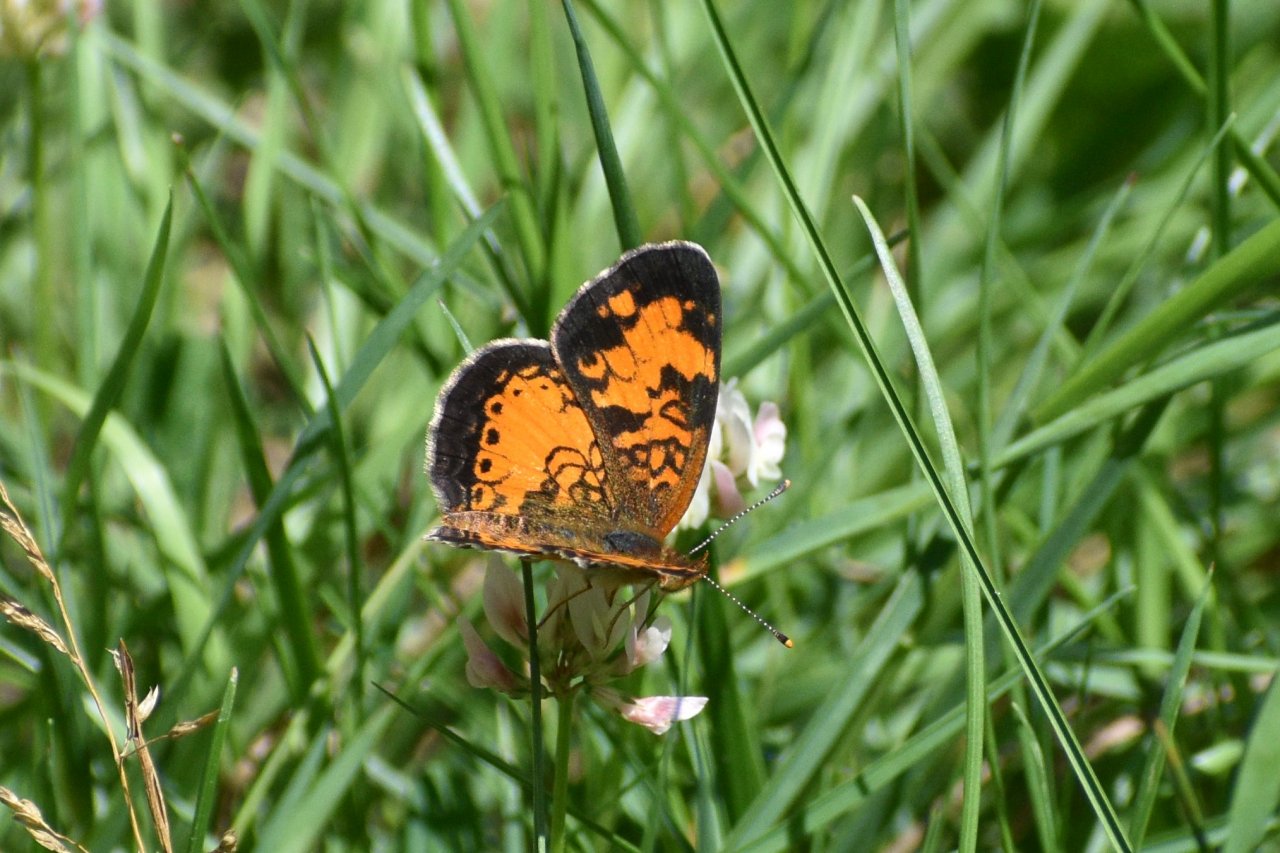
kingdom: Animalia
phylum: Arthropoda
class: Insecta
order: Lepidoptera
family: Nymphalidae
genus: Phyciodes
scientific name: Phyciodes tharos
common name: Northern Crescent
